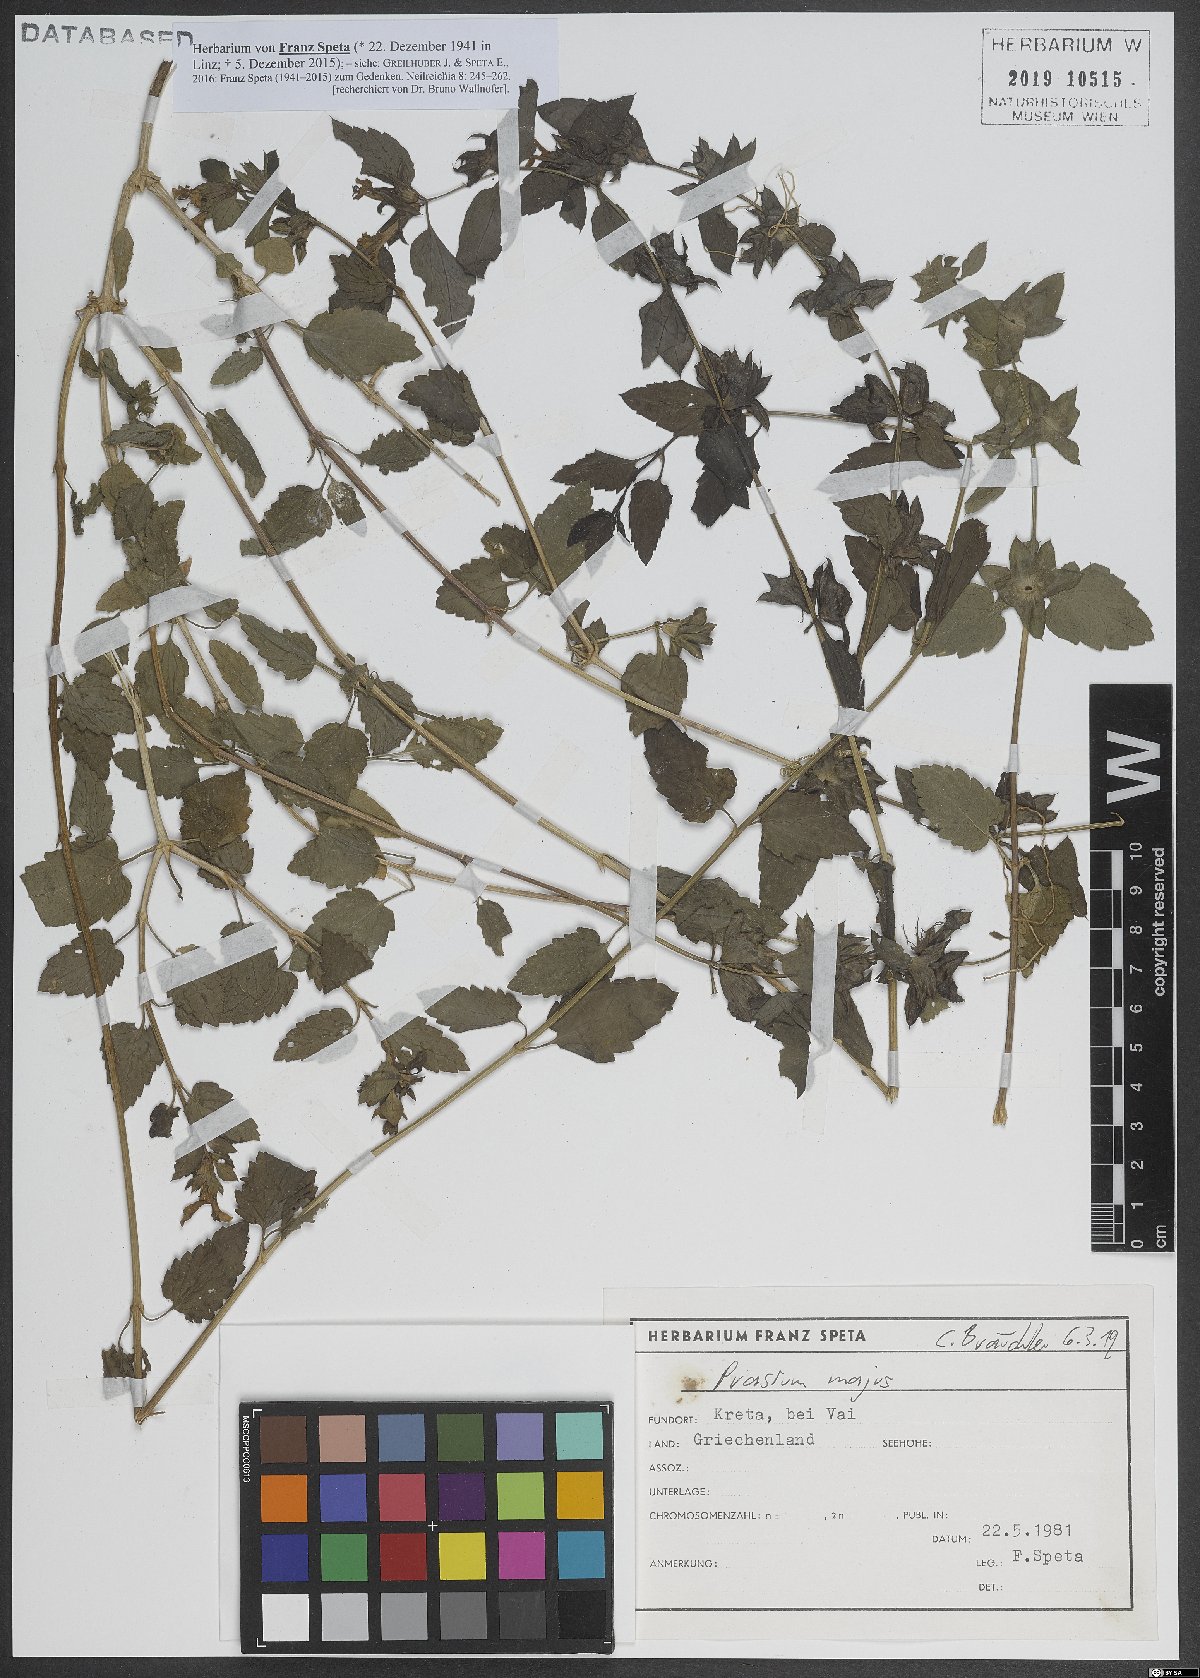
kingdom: Plantae
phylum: Tracheophyta
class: Magnoliopsida
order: Lamiales
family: Lamiaceae
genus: Prasium
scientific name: Prasium majus
